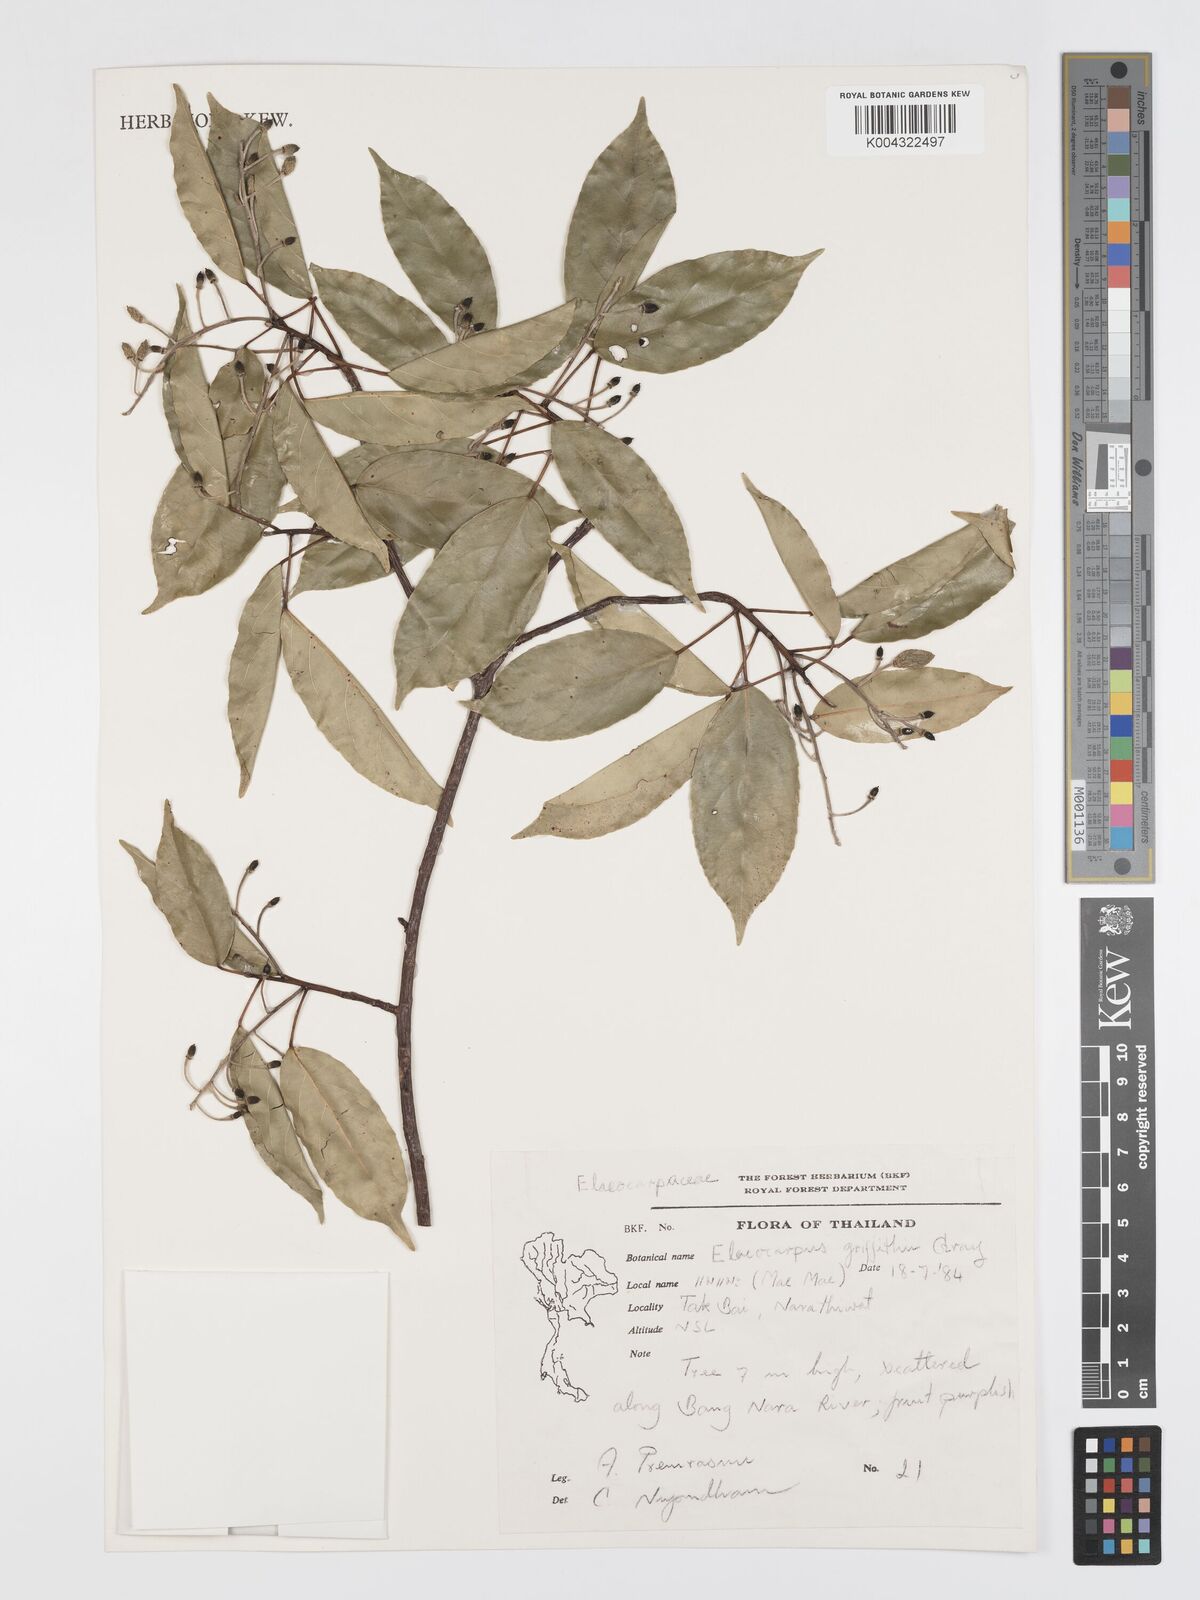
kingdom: Plantae
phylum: Tracheophyta
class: Magnoliopsida
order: Oxalidales
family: Elaeocarpaceae
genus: Elaeocarpus
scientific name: Elaeocarpus griffithii
